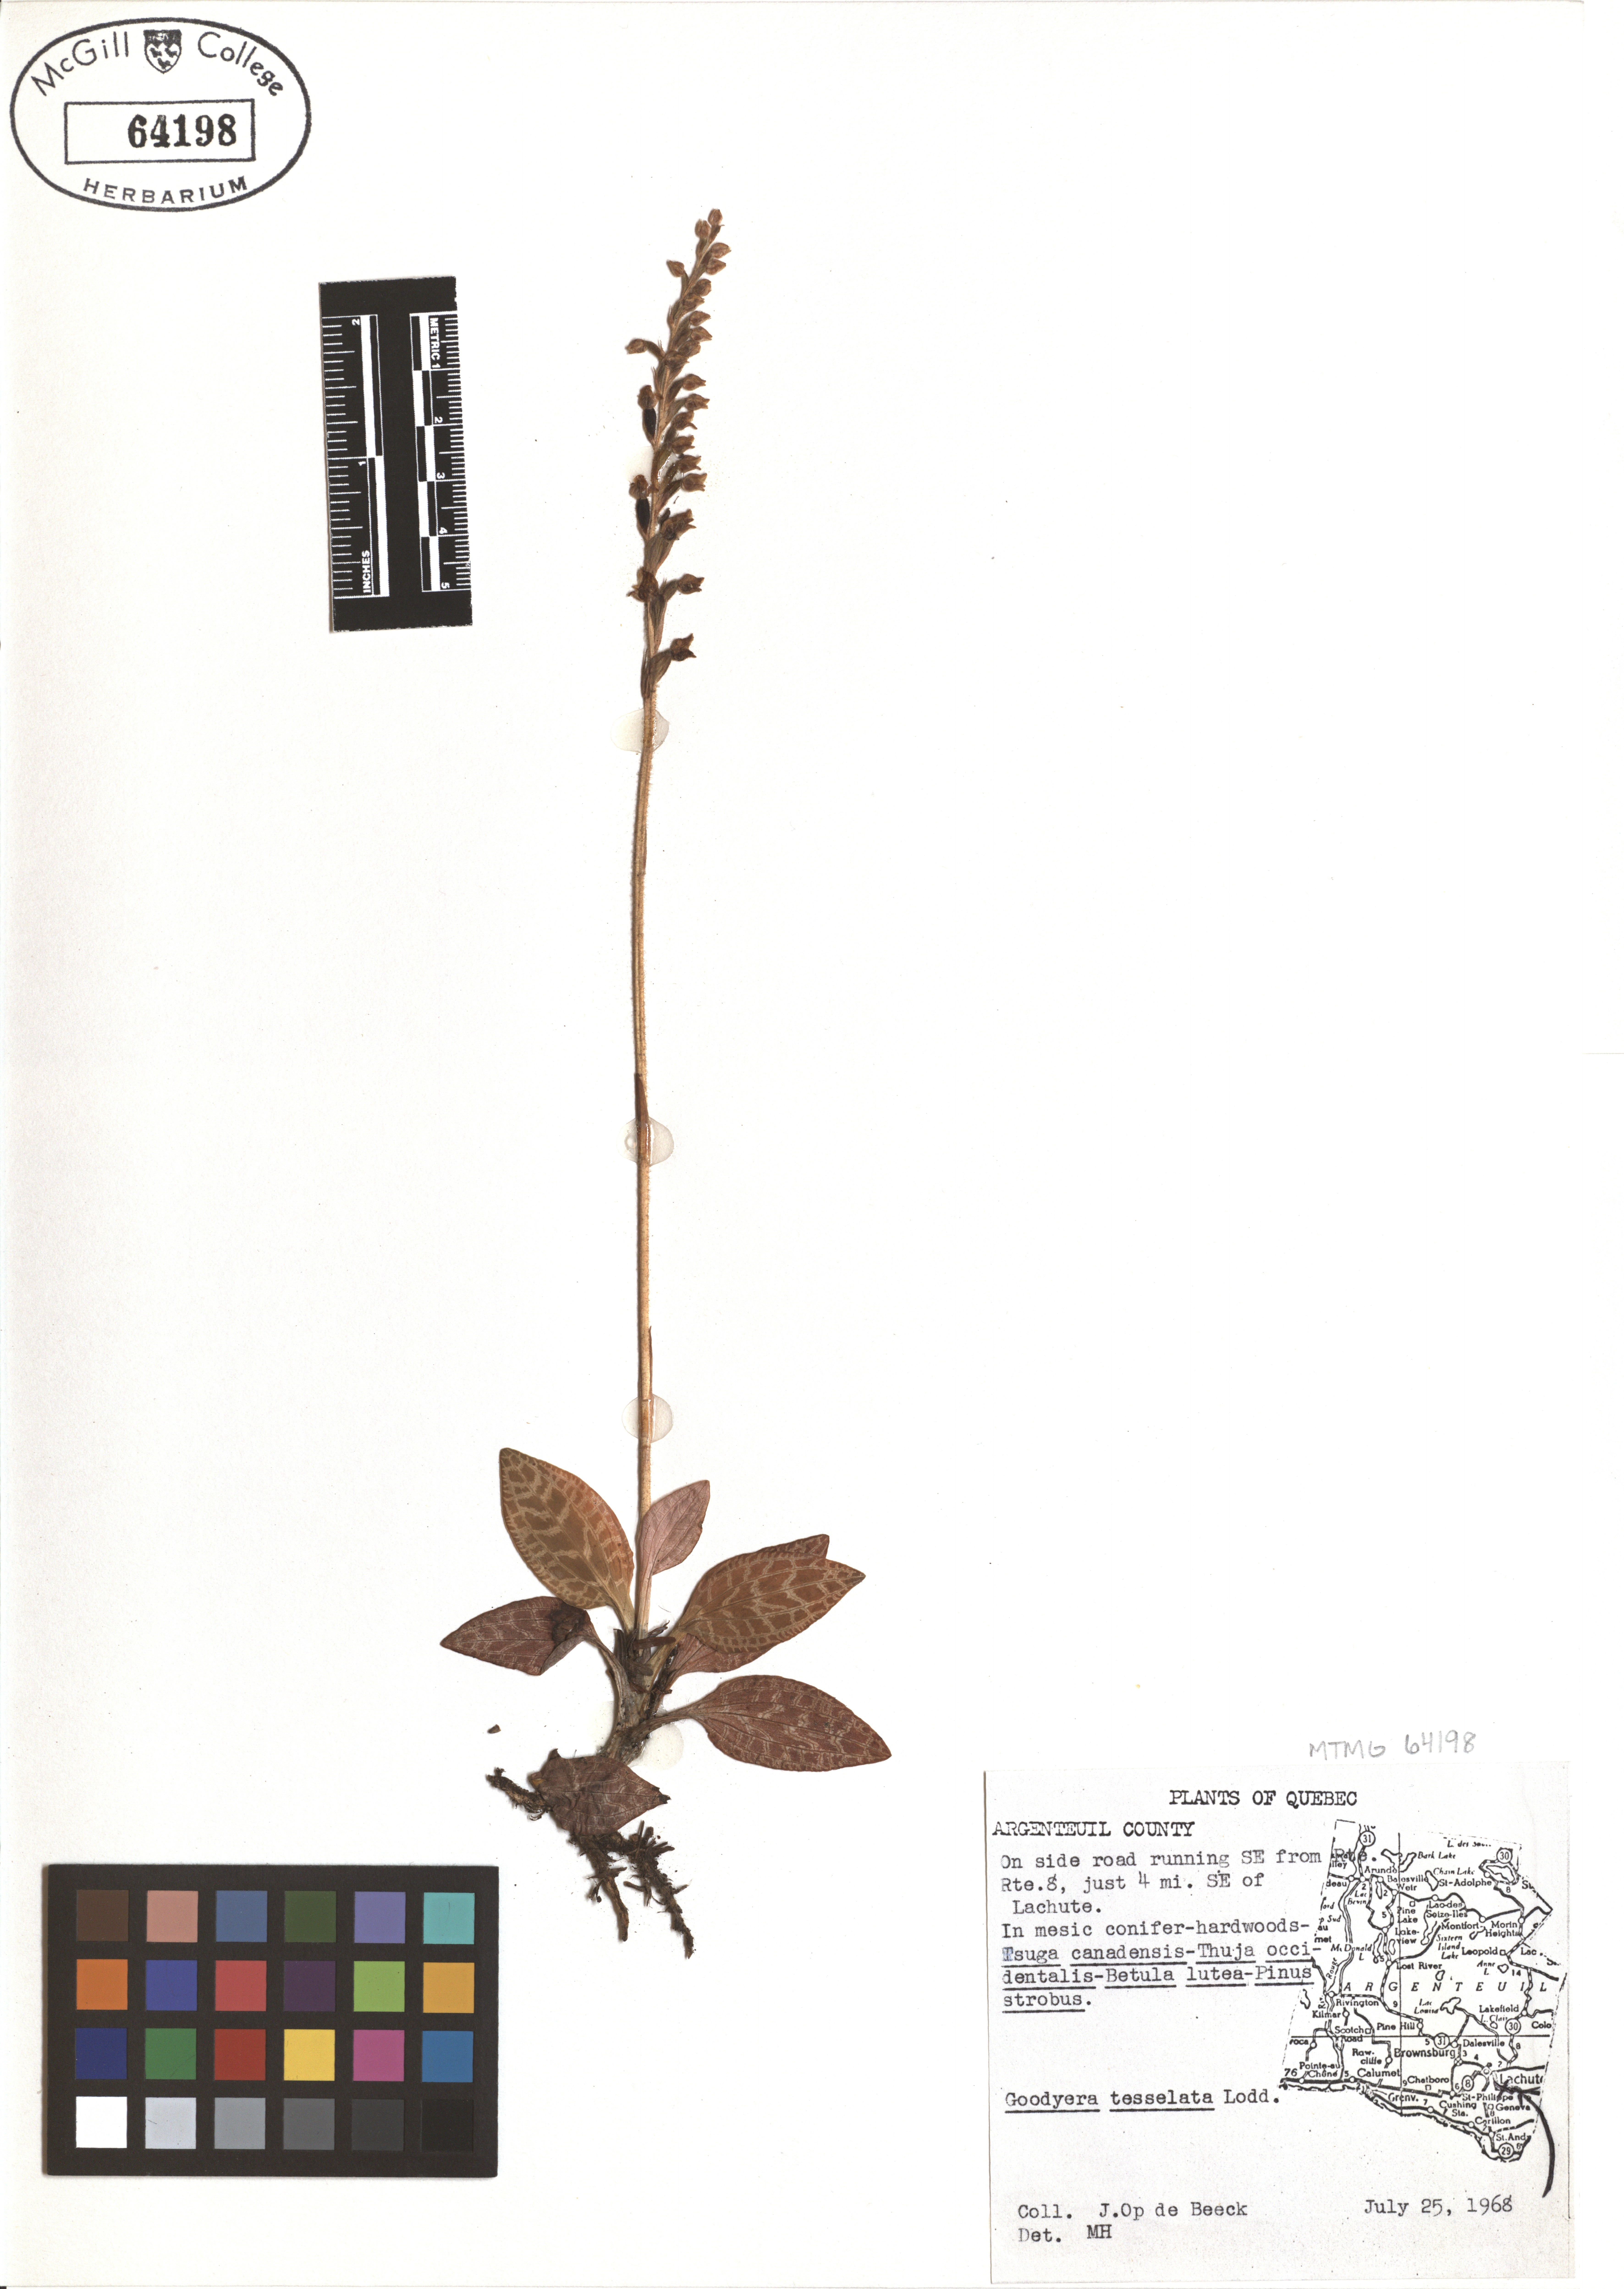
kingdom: Plantae
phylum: Tracheophyta
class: Liliopsida
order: Asparagales
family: Orchidaceae
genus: Goodyera
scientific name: Goodyera tesselata
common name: Checkered rattlesnake-plantain
